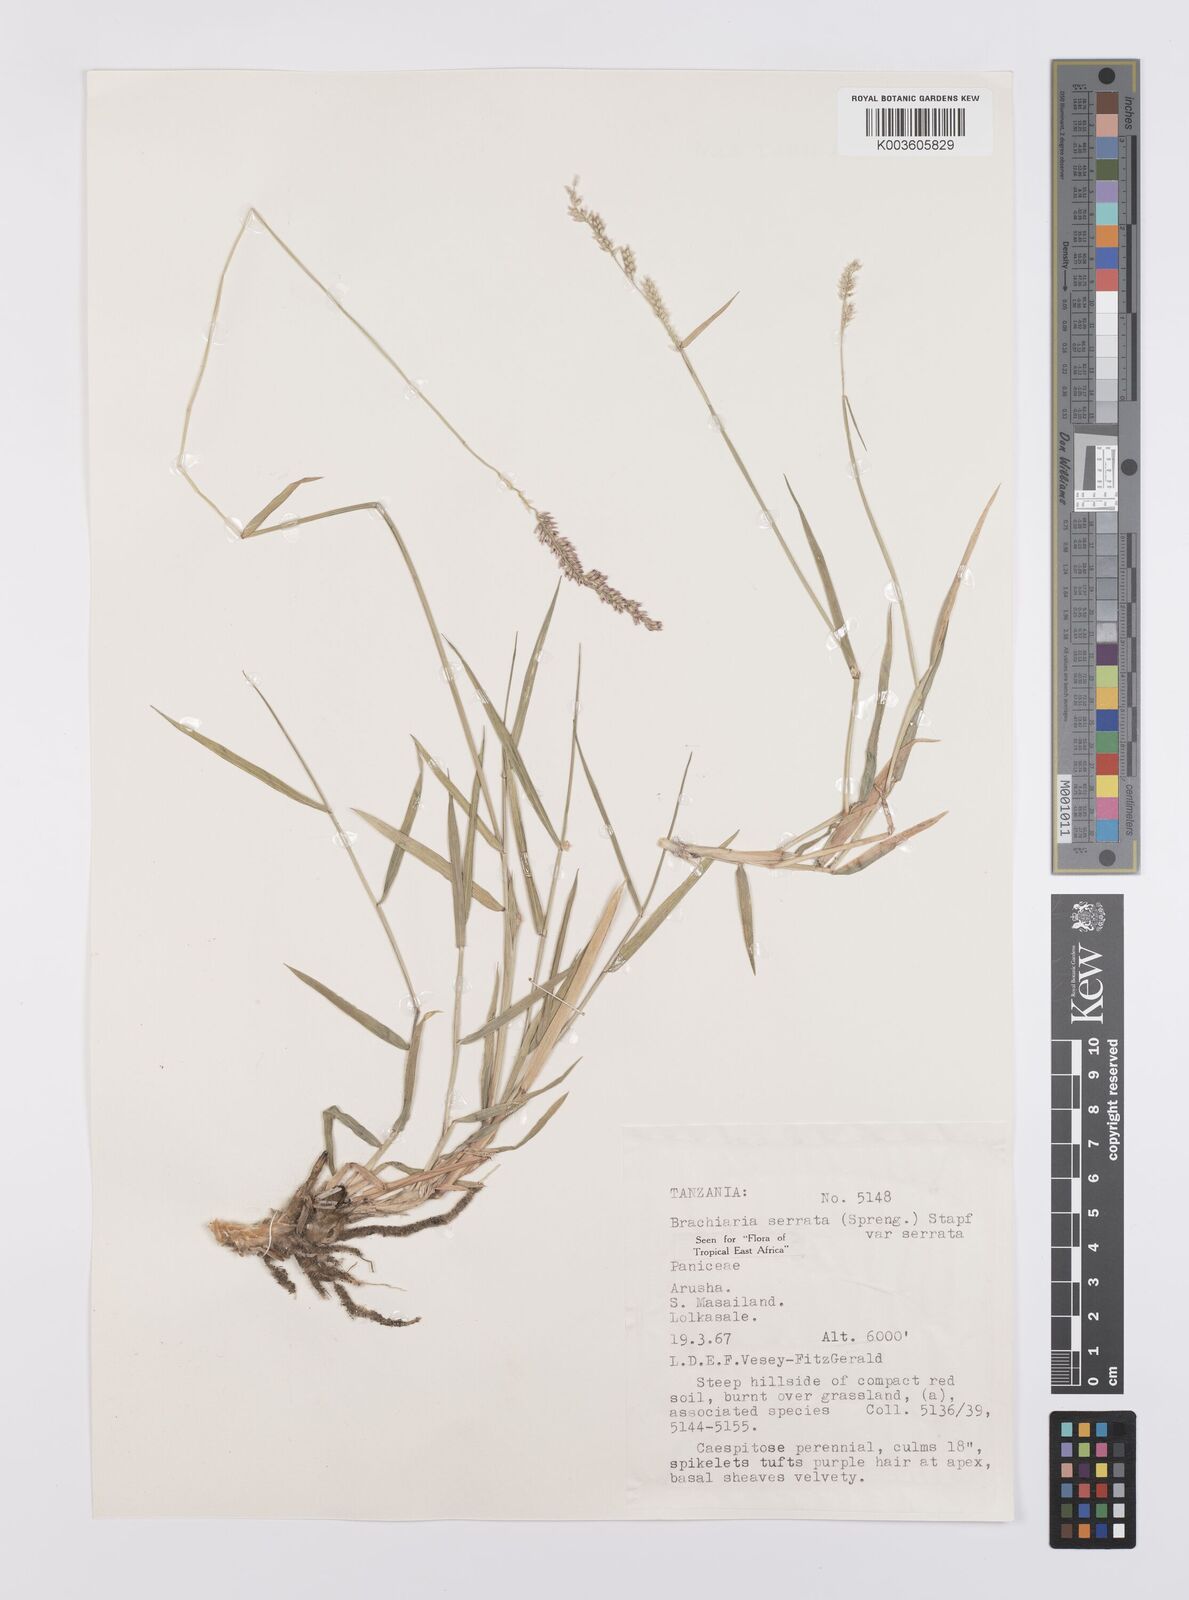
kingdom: Plantae
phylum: Tracheophyta
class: Liliopsida
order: Poales
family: Poaceae
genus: Urochloa
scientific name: Urochloa serrata
